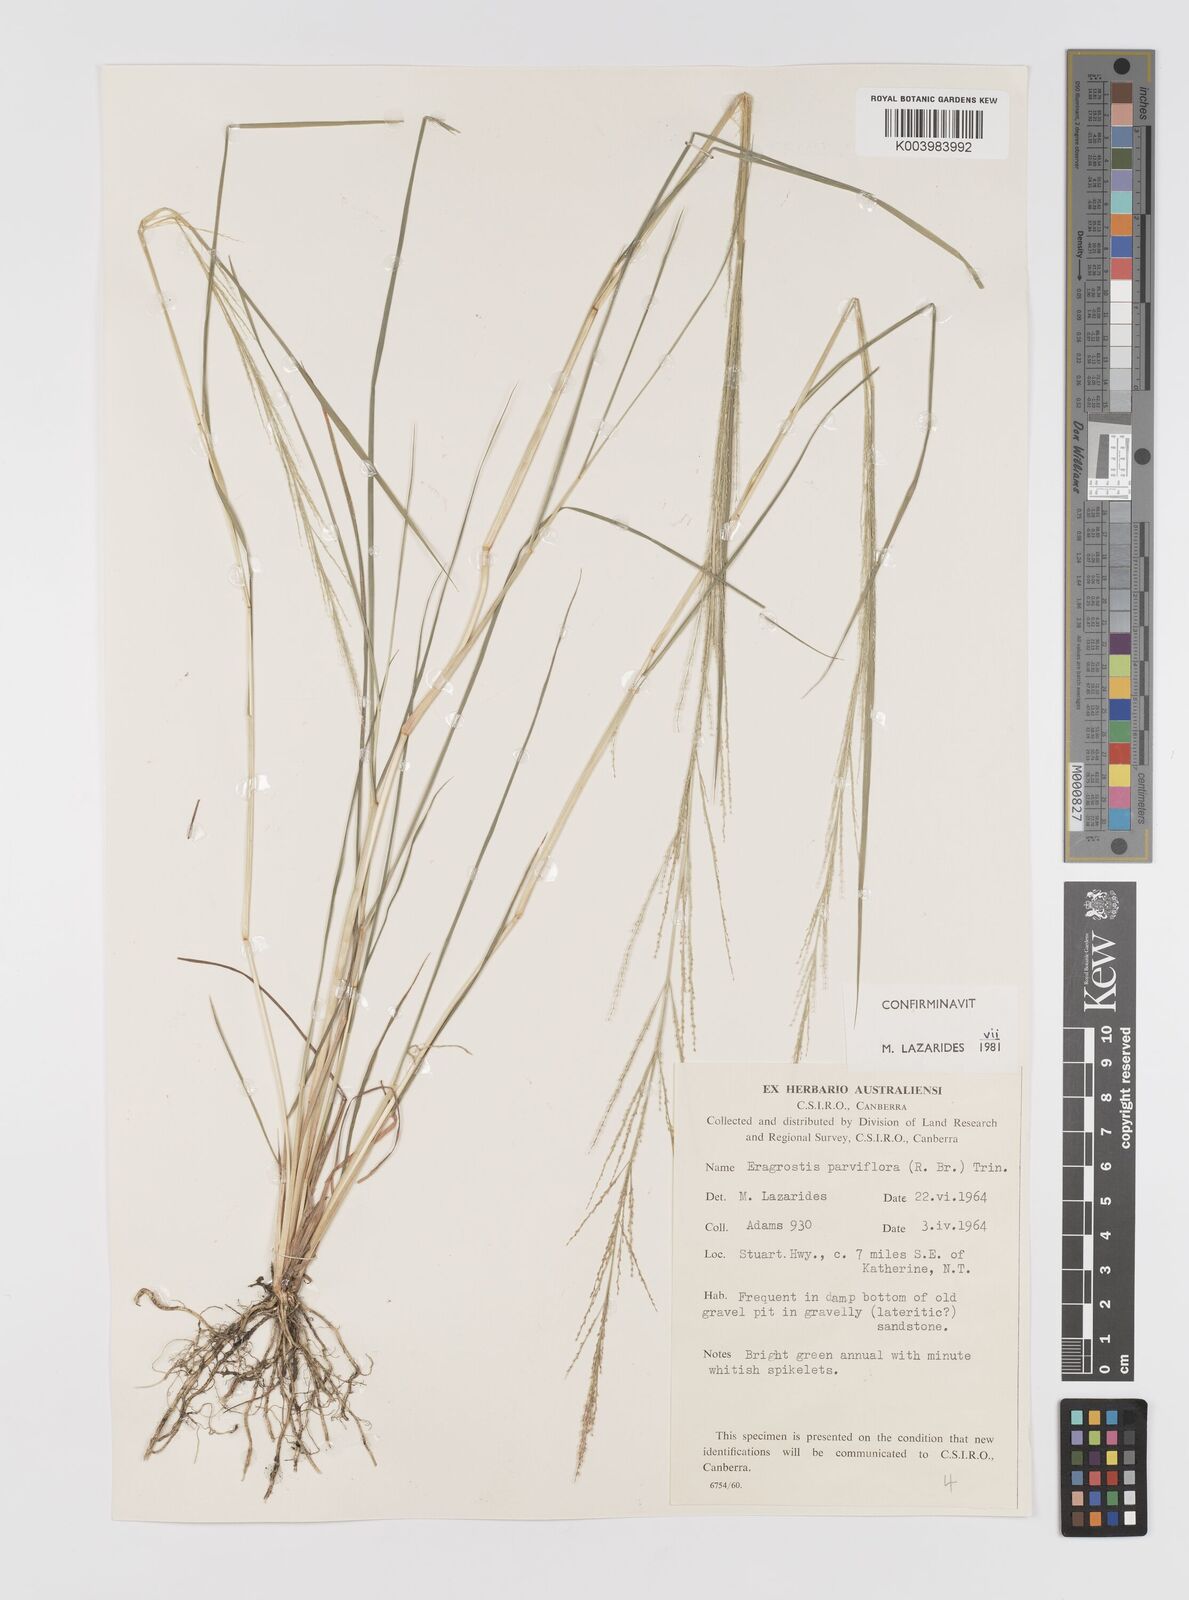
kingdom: Plantae
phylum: Tracheophyta
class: Liliopsida
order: Poales
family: Poaceae
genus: Eragrostis
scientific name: Eragrostis parviflora
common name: Weeping love-grass
